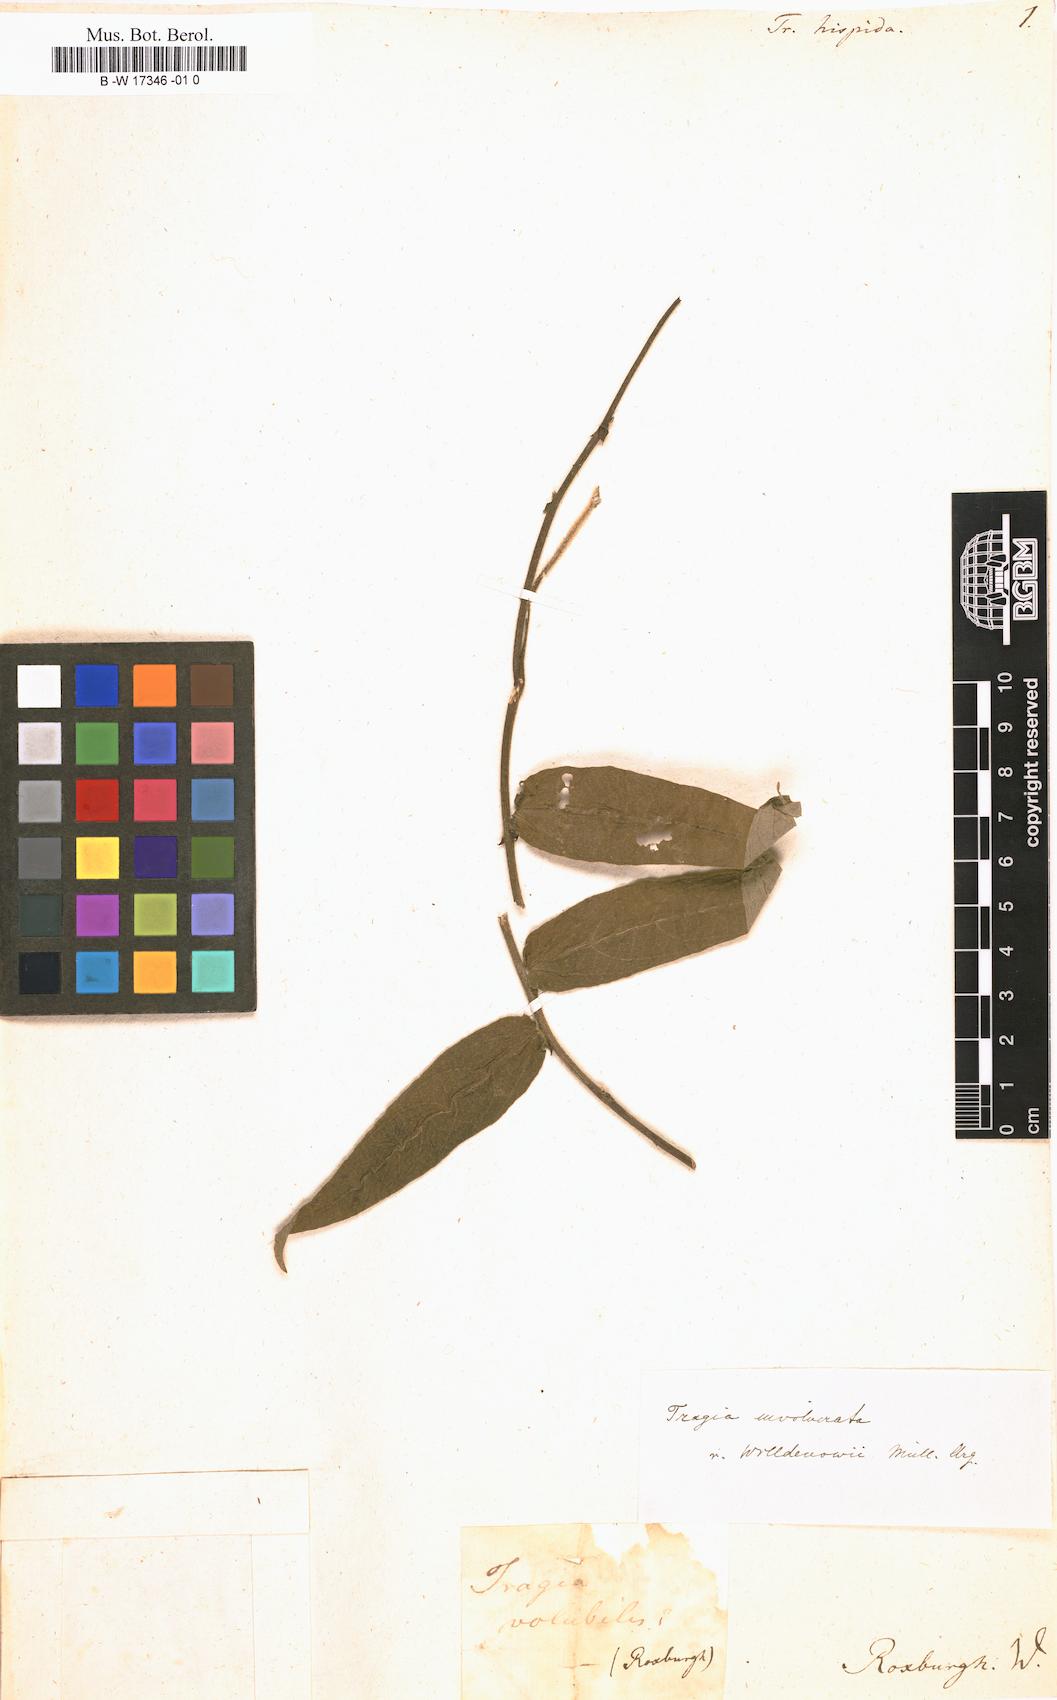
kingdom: Plantae
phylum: Tracheophyta
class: Magnoliopsida
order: Malpighiales
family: Euphorbiaceae
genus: Tragia
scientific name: Tragia hispida
